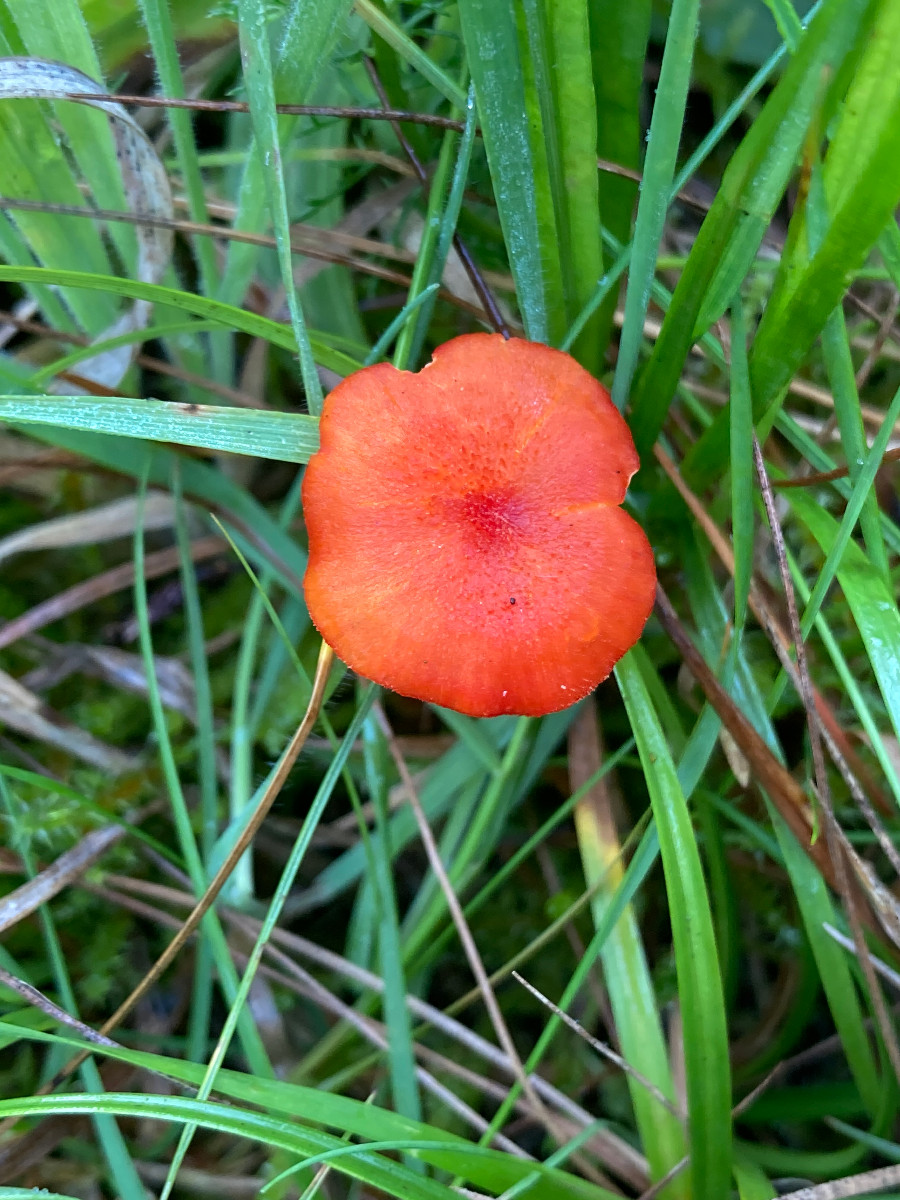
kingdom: Fungi
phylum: Basidiomycota
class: Agaricomycetes
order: Agaricales
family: Hygrophoraceae
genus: Hygrocybe
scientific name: Hygrocybe helobia
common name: hvidløgs-vokshat
